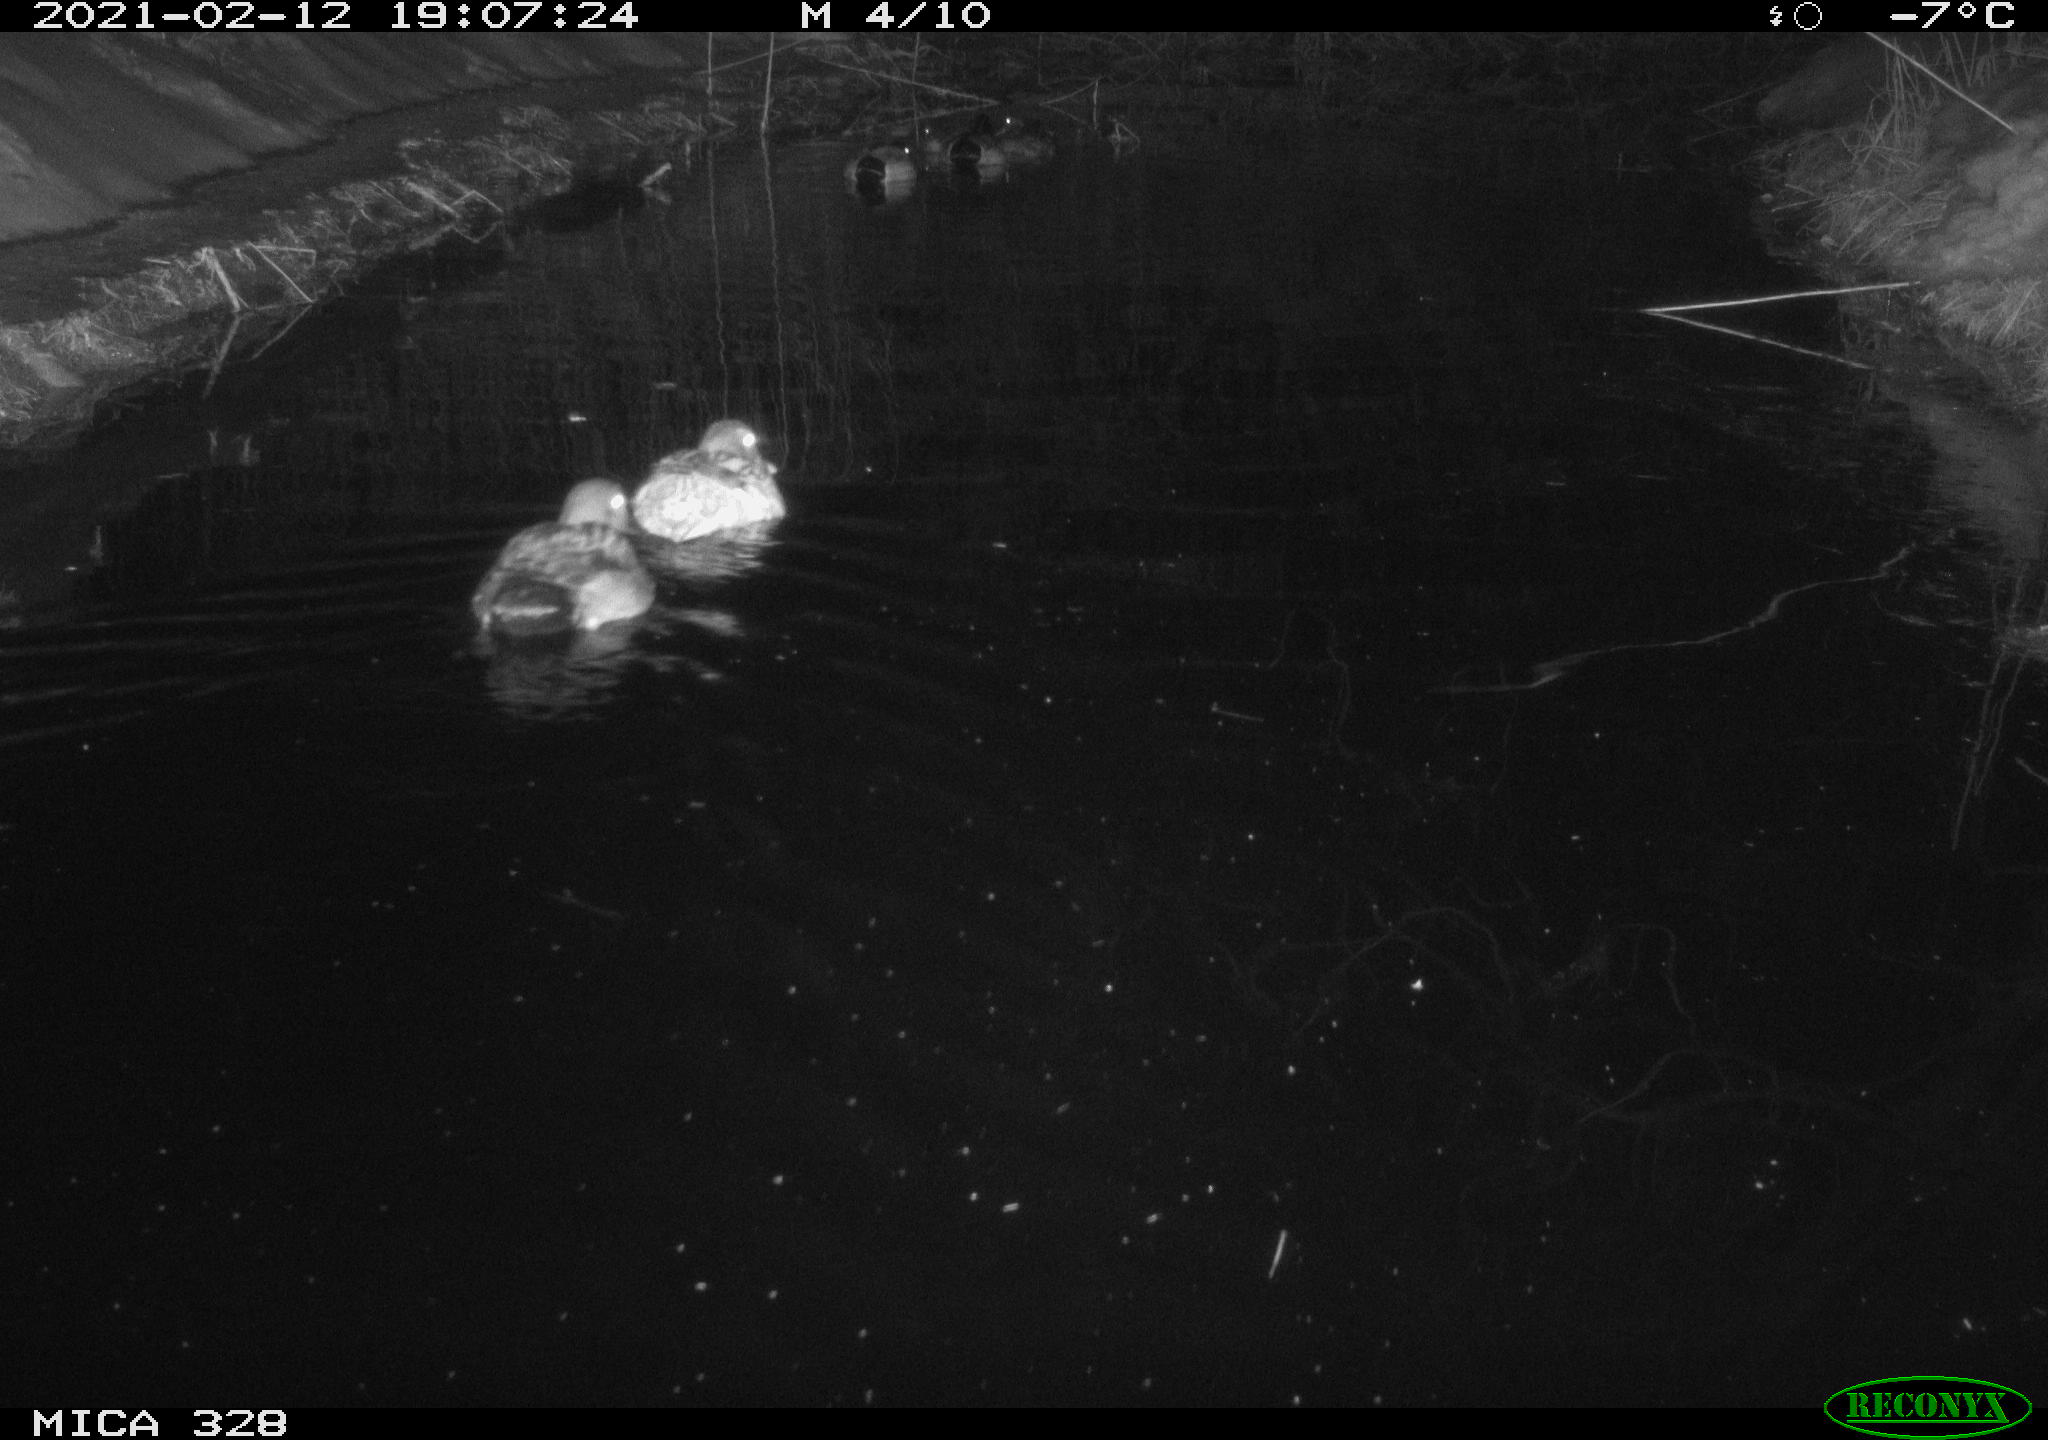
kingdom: Animalia
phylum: Chordata
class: Aves
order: Anseriformes
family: Anatidae
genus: Anas
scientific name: Anas platyrhynchos
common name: Mallard
